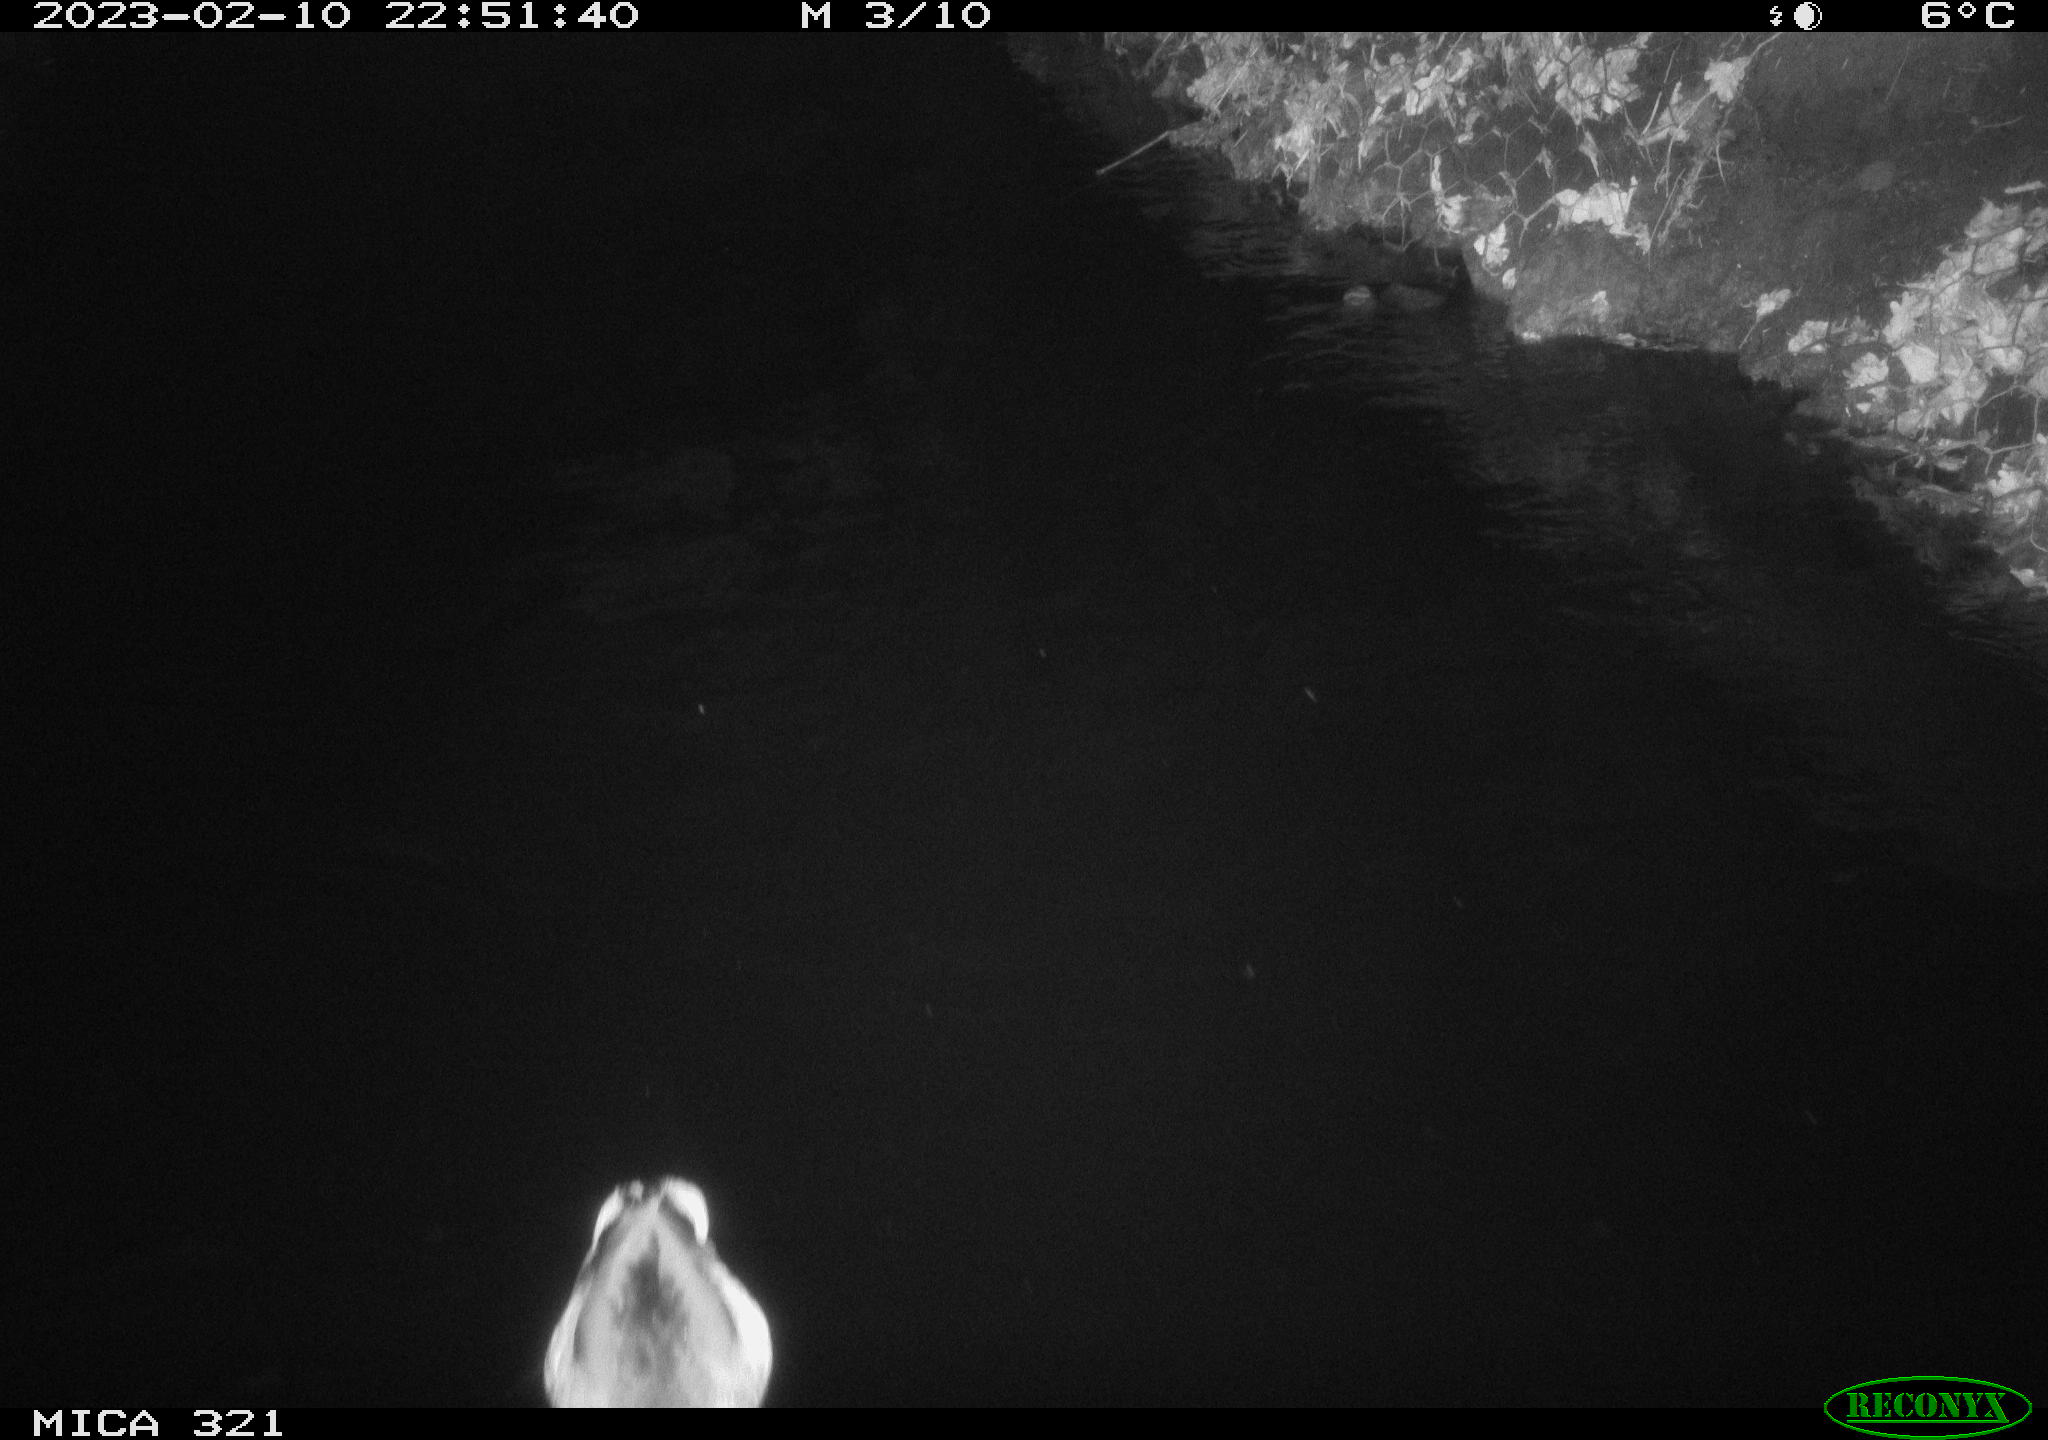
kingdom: Animalia
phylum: Chordata
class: Aves
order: Anseriformes
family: Anatidae
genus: Anas
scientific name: Anas
